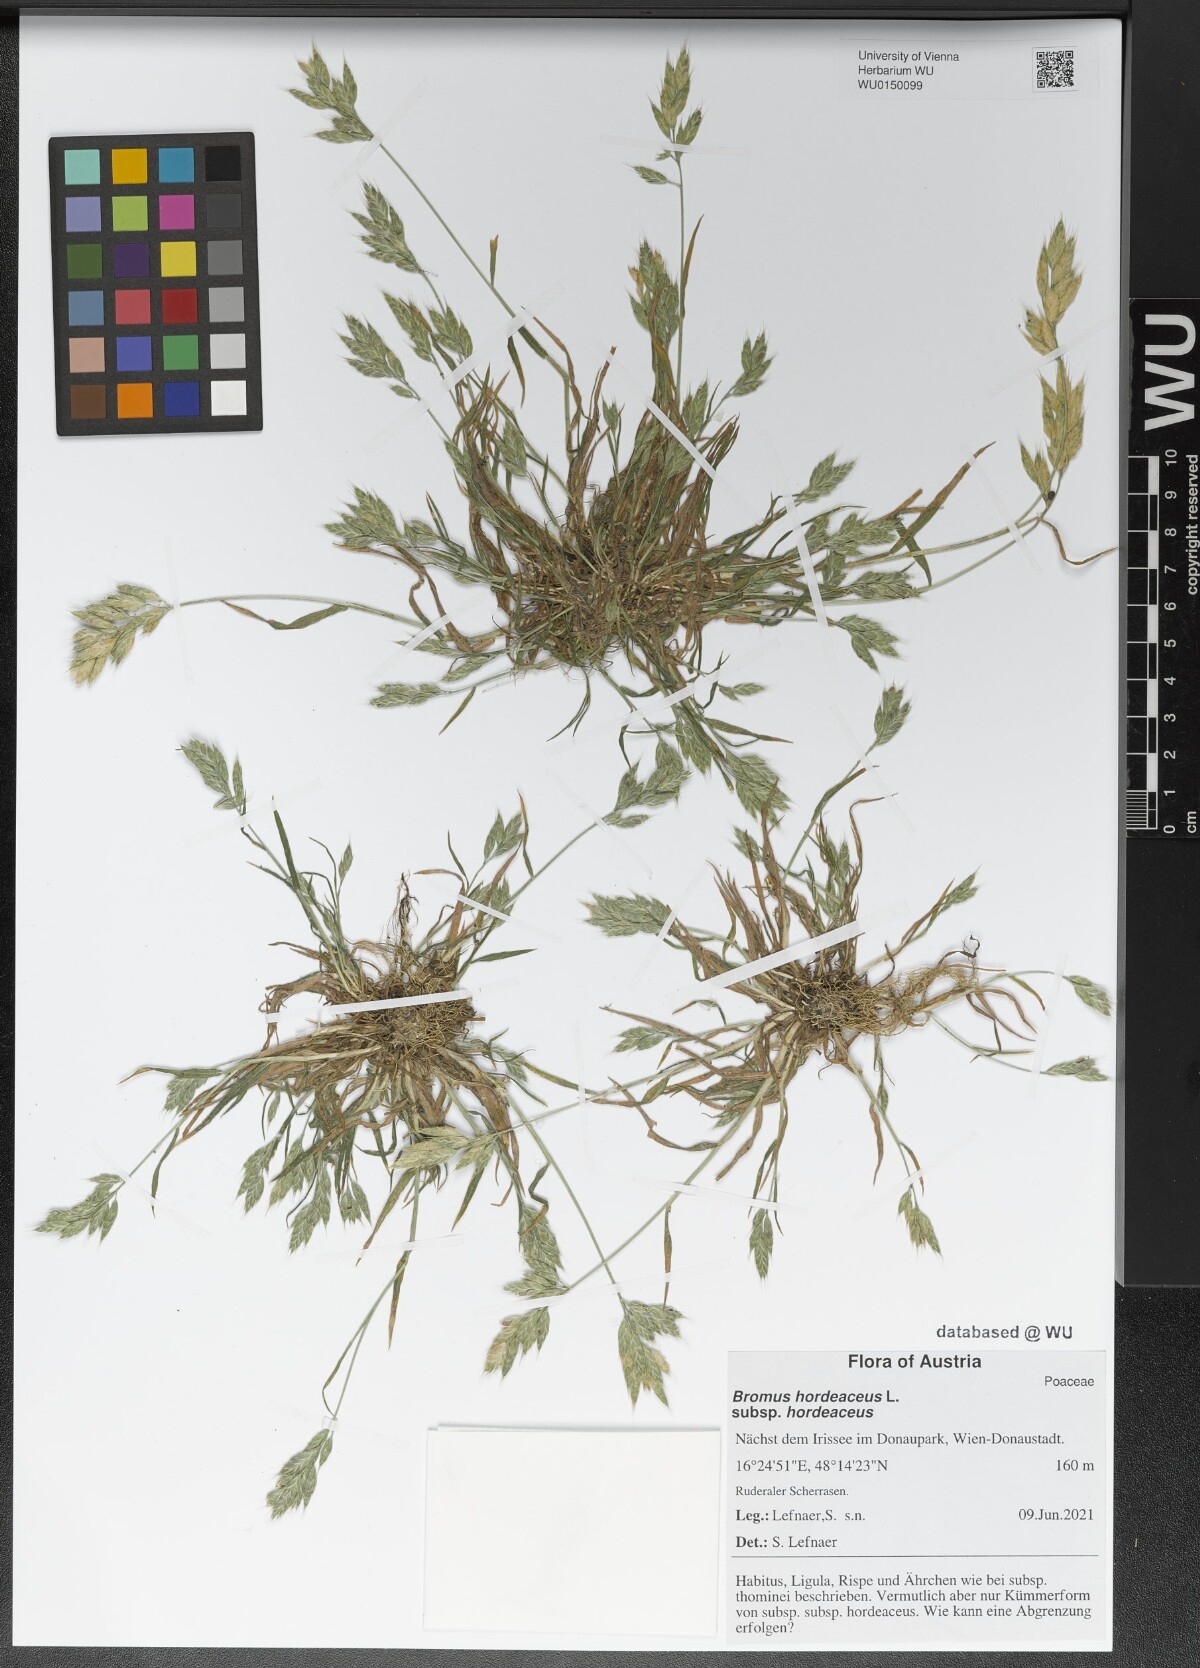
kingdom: Plantae
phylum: Tracheophyta
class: Liliopsida
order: Poales
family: Poaceae
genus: Bromus
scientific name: Bromus hordeaceus
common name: Soft brome
